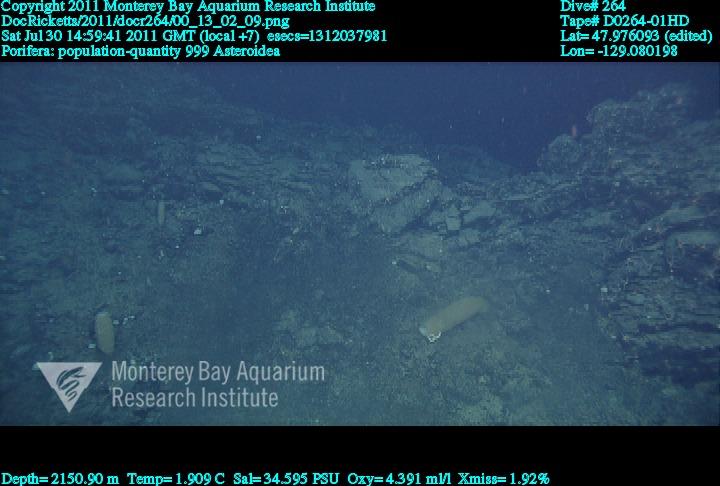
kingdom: Animalia
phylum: Porifera
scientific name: Porifera
